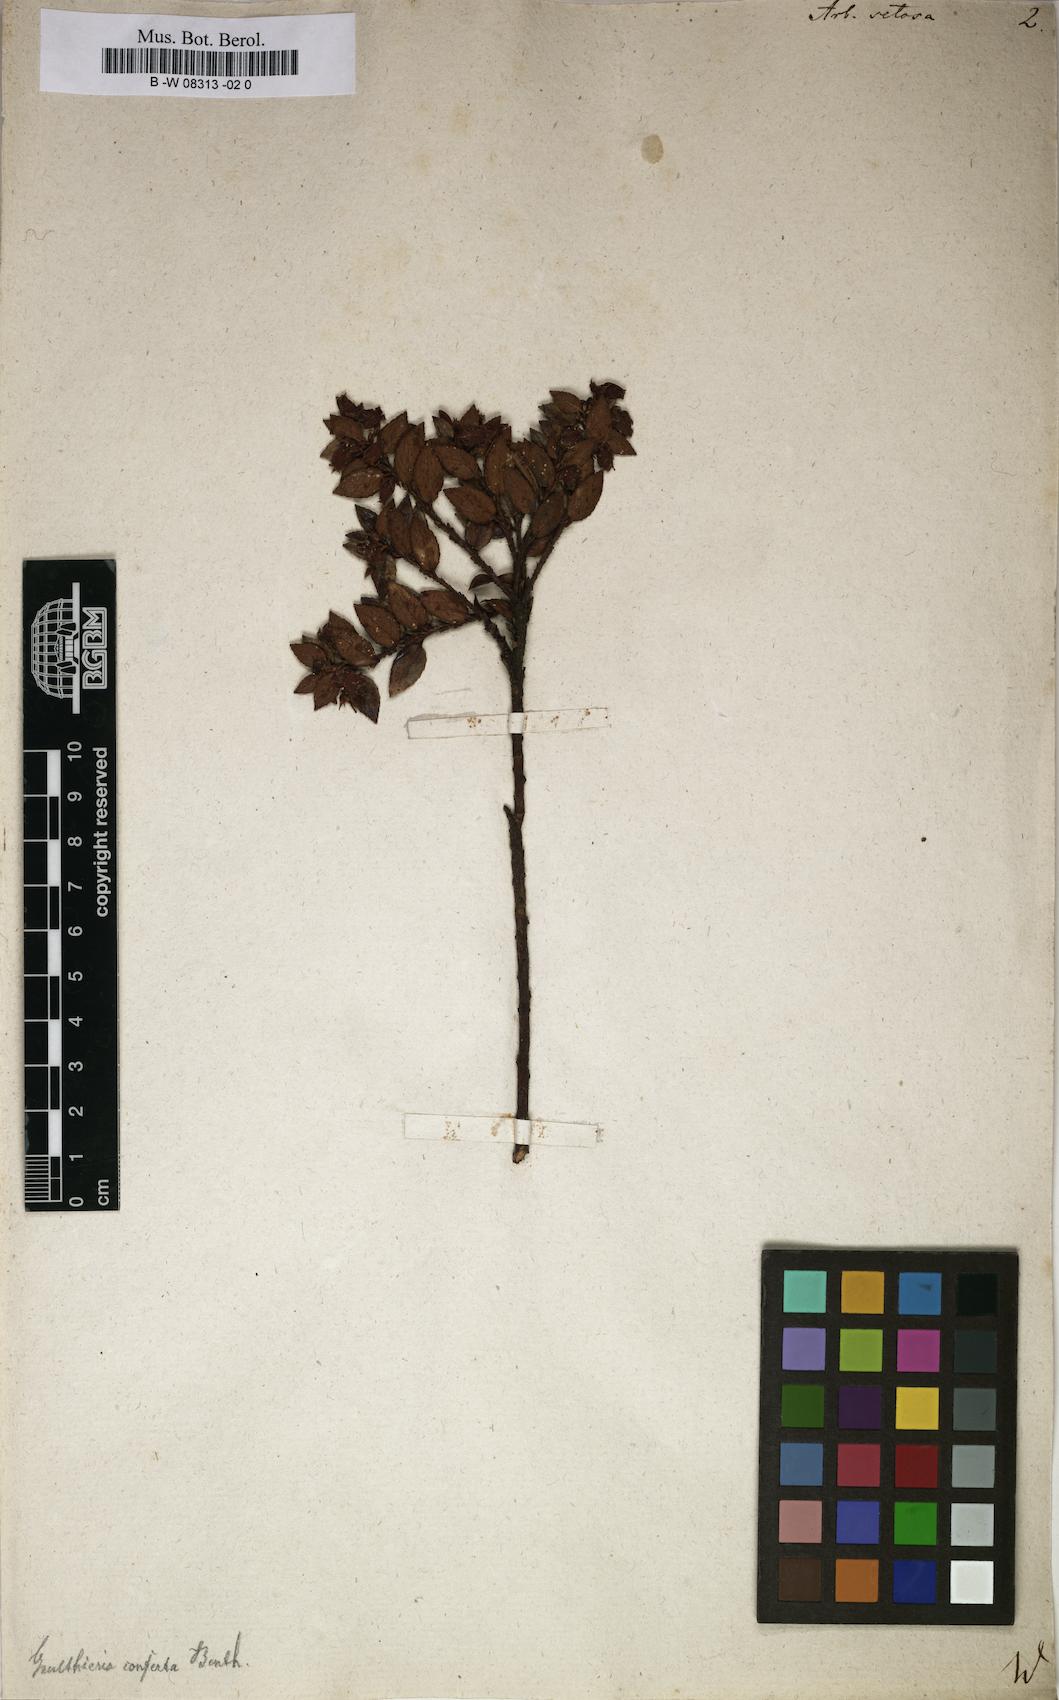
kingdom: Plantae
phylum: Tracheophyta
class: Magnoliopsida
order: Ericales
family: Ericaceae
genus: Arbutus
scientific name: Arbutus
